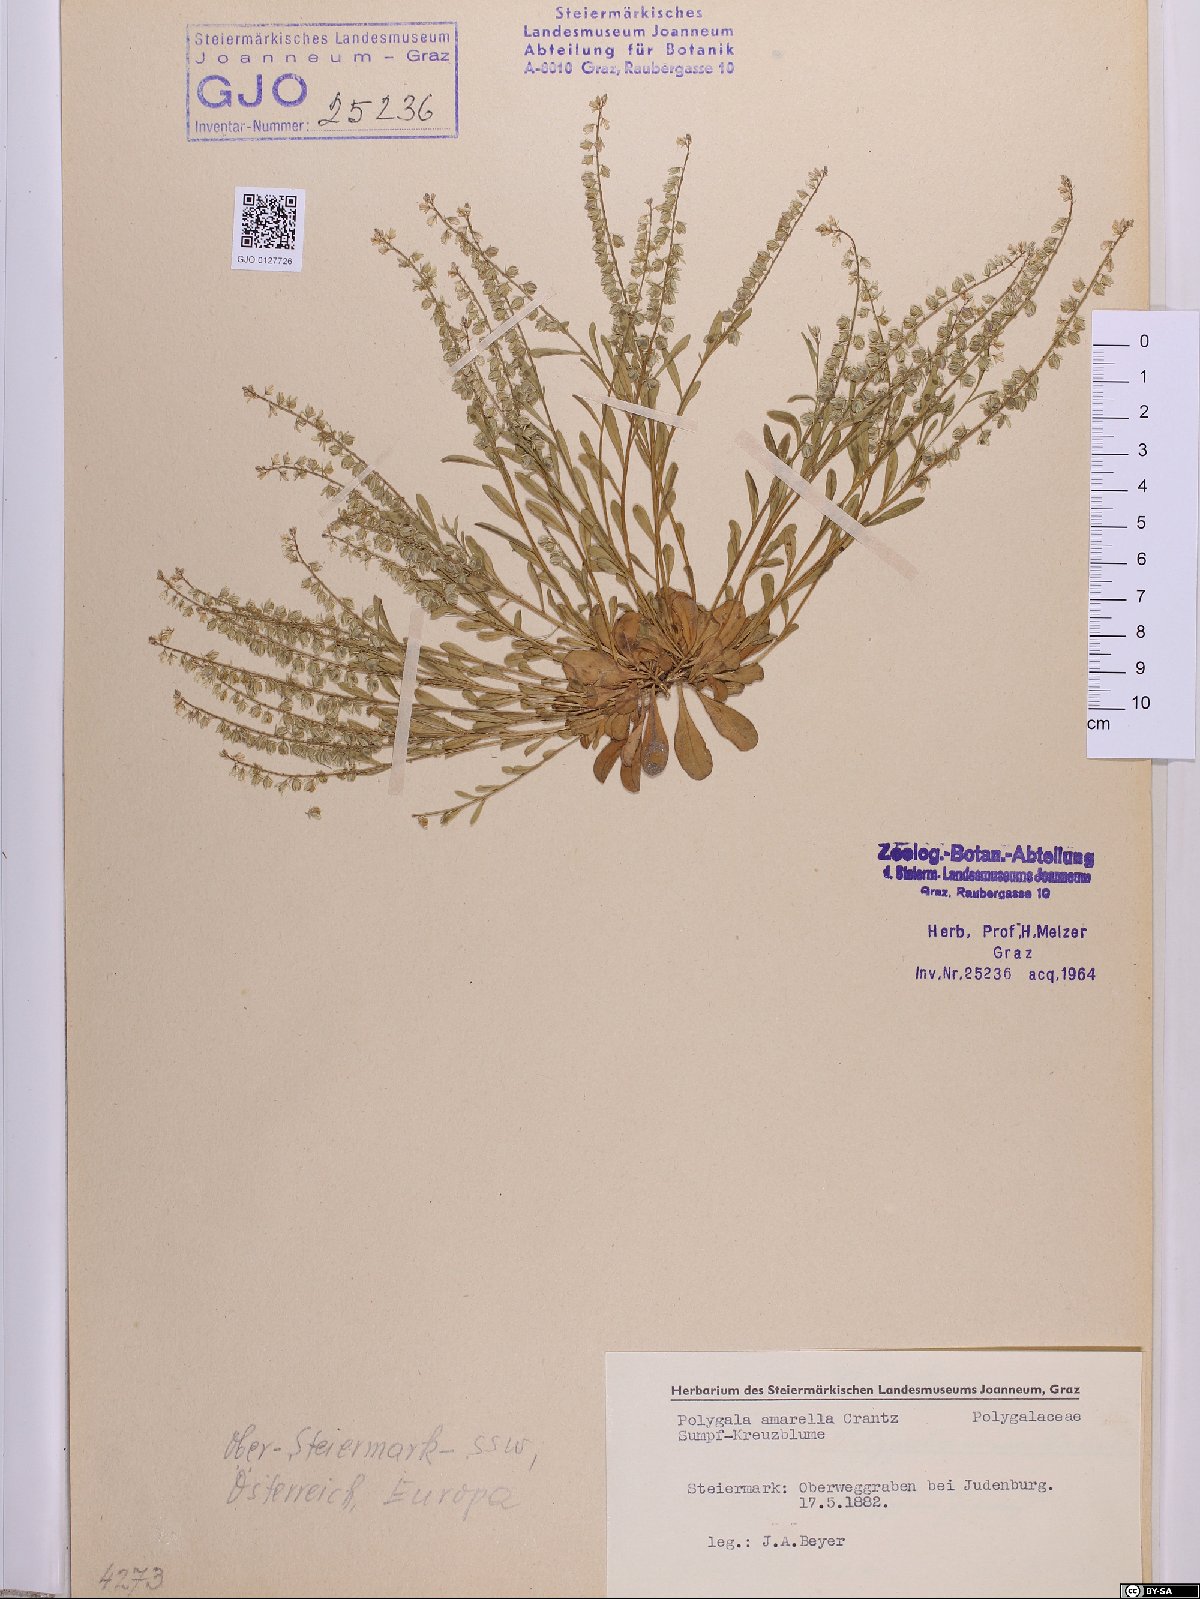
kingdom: Plantae
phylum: Tracheophyta
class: Magnoliopsida
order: Fabales
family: Polygalaceae
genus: Polygala
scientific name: Polygala amarella
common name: Dwarf milkwort
